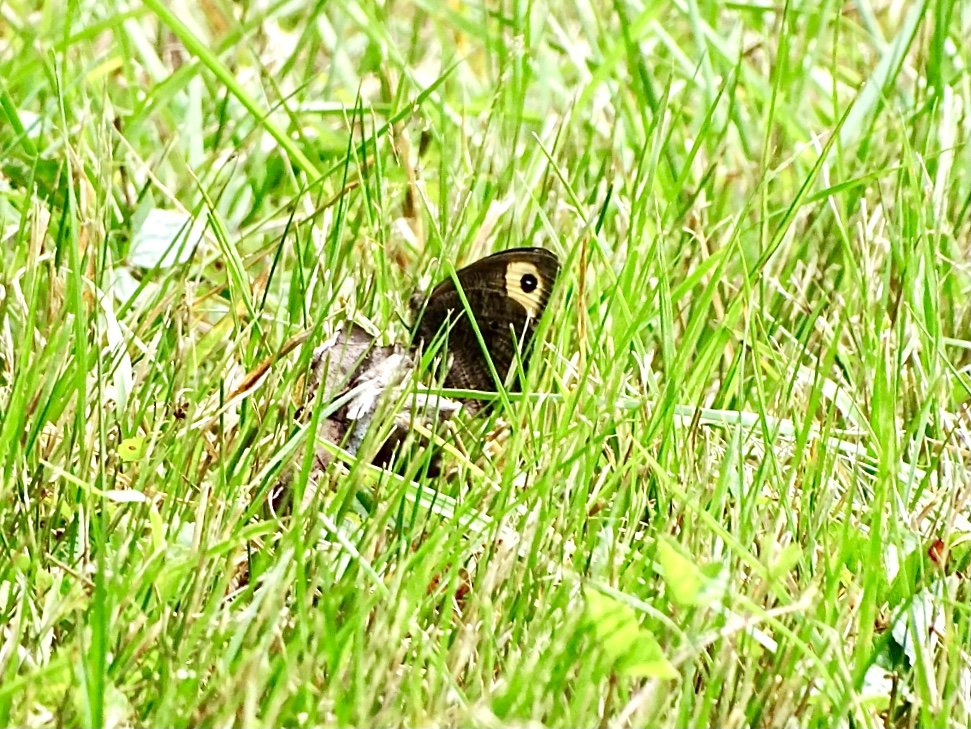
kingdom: Animalia
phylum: Arthropoda
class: Insecta
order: Lepidoptera
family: Nymphalidae
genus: Cercyonis
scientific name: Cercyonis pegala
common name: Common Wood-Nymph
